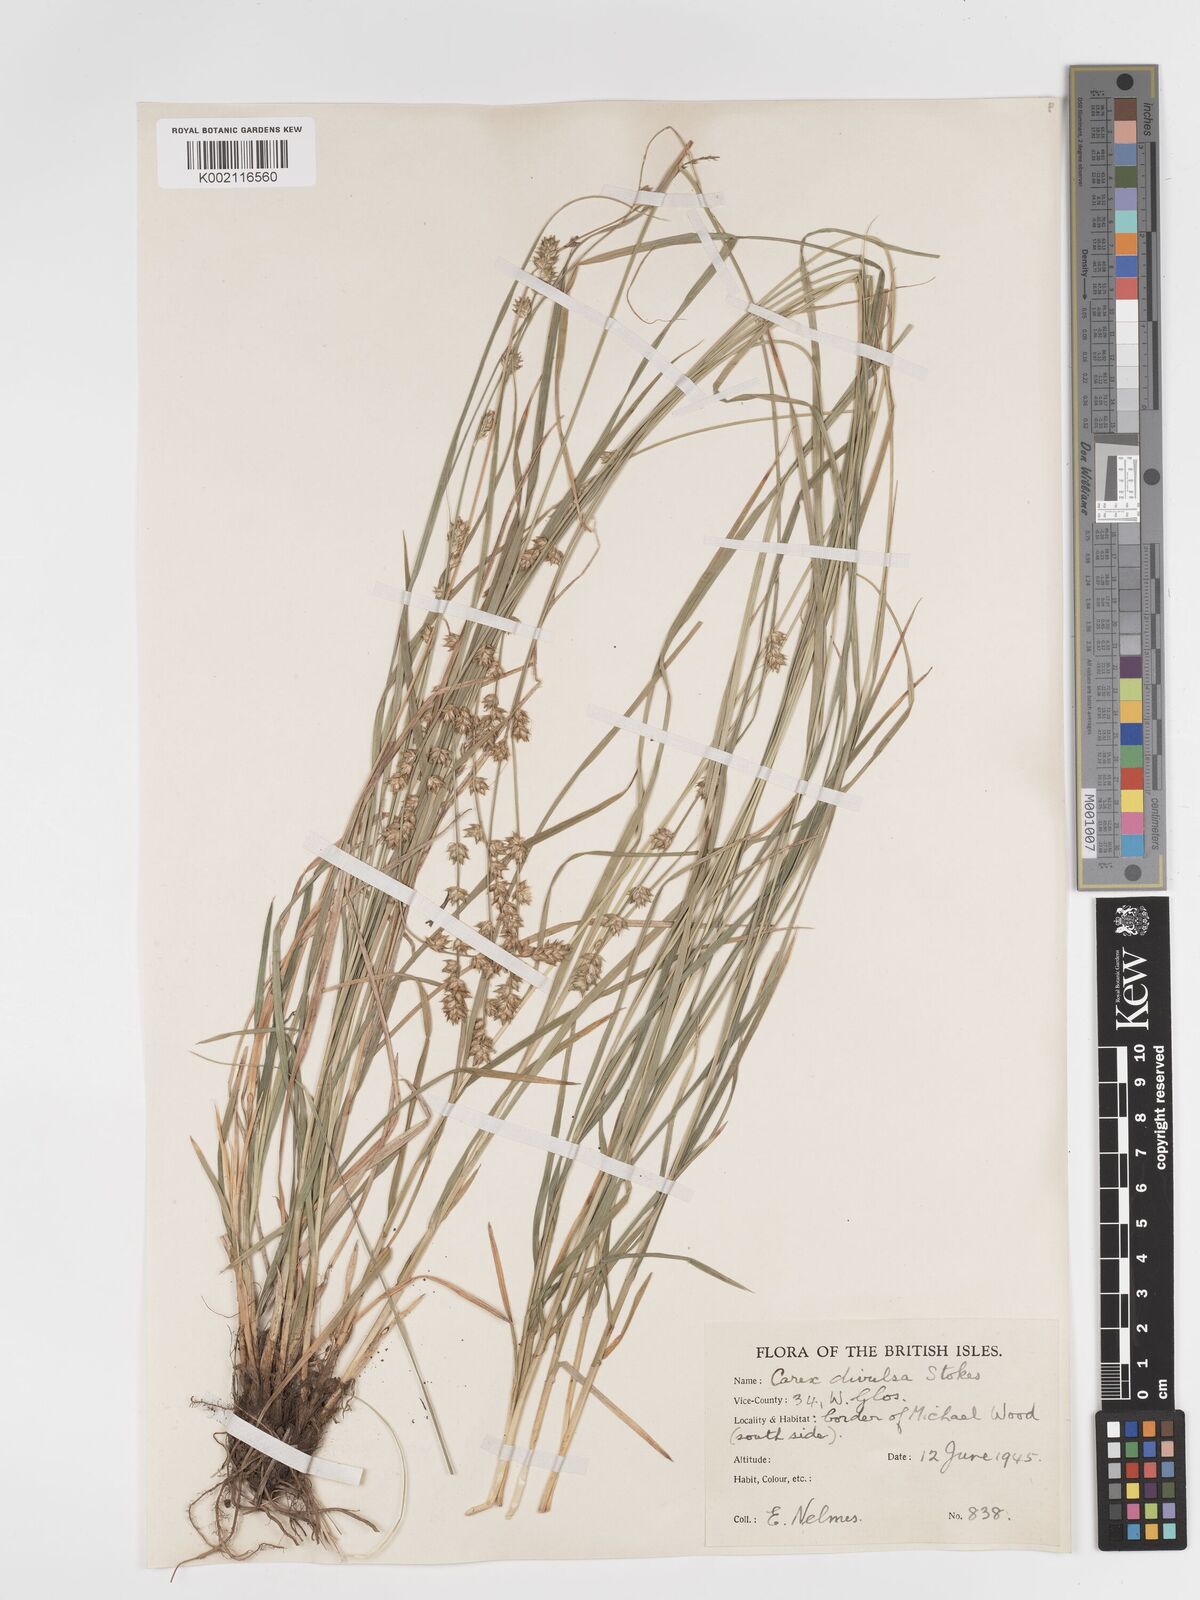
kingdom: Plantae
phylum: Tracheophyta
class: Liliopsida
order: Poales
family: Cyperaceae
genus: Carex
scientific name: Carex divulsa
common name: Grassland sedge
